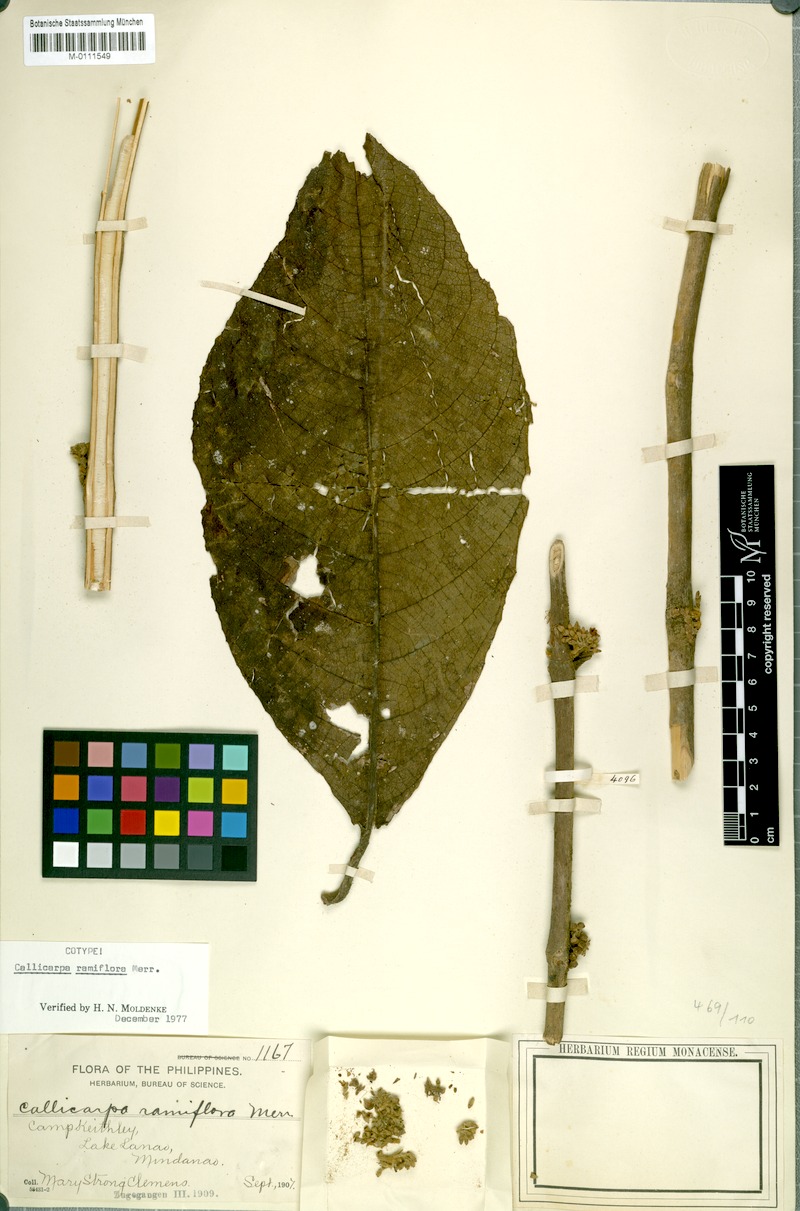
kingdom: Plantae
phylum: Tracheophyta
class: Magnoliopsida
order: Lamiales
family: Lamiaceae
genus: Callicarpa
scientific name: Callicarpa ramiflora
